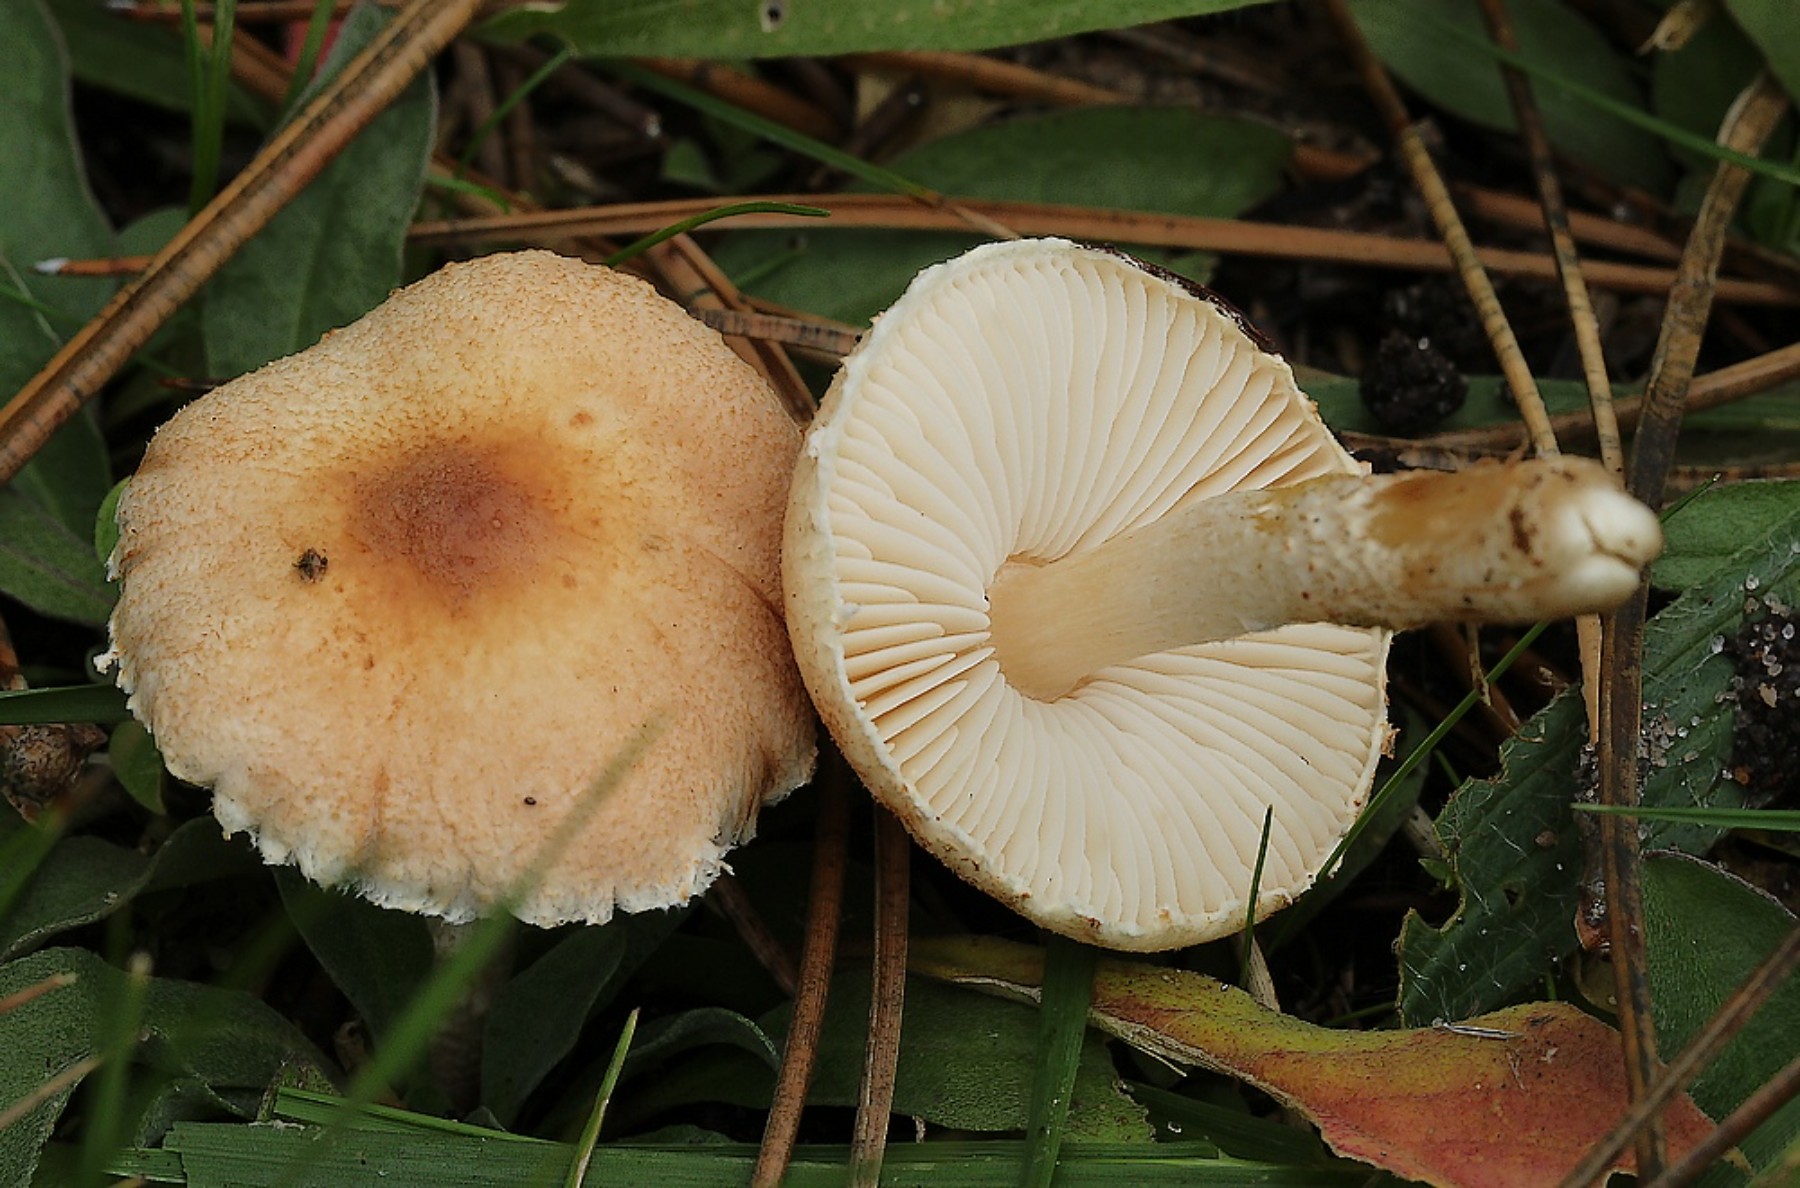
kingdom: Fungi
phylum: Basidiomycota
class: Agaricomycetes
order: Agaricales
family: Agaricaceae
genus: Lepiota
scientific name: Lepiota subincarnata
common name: kødfarvet parasolhat
